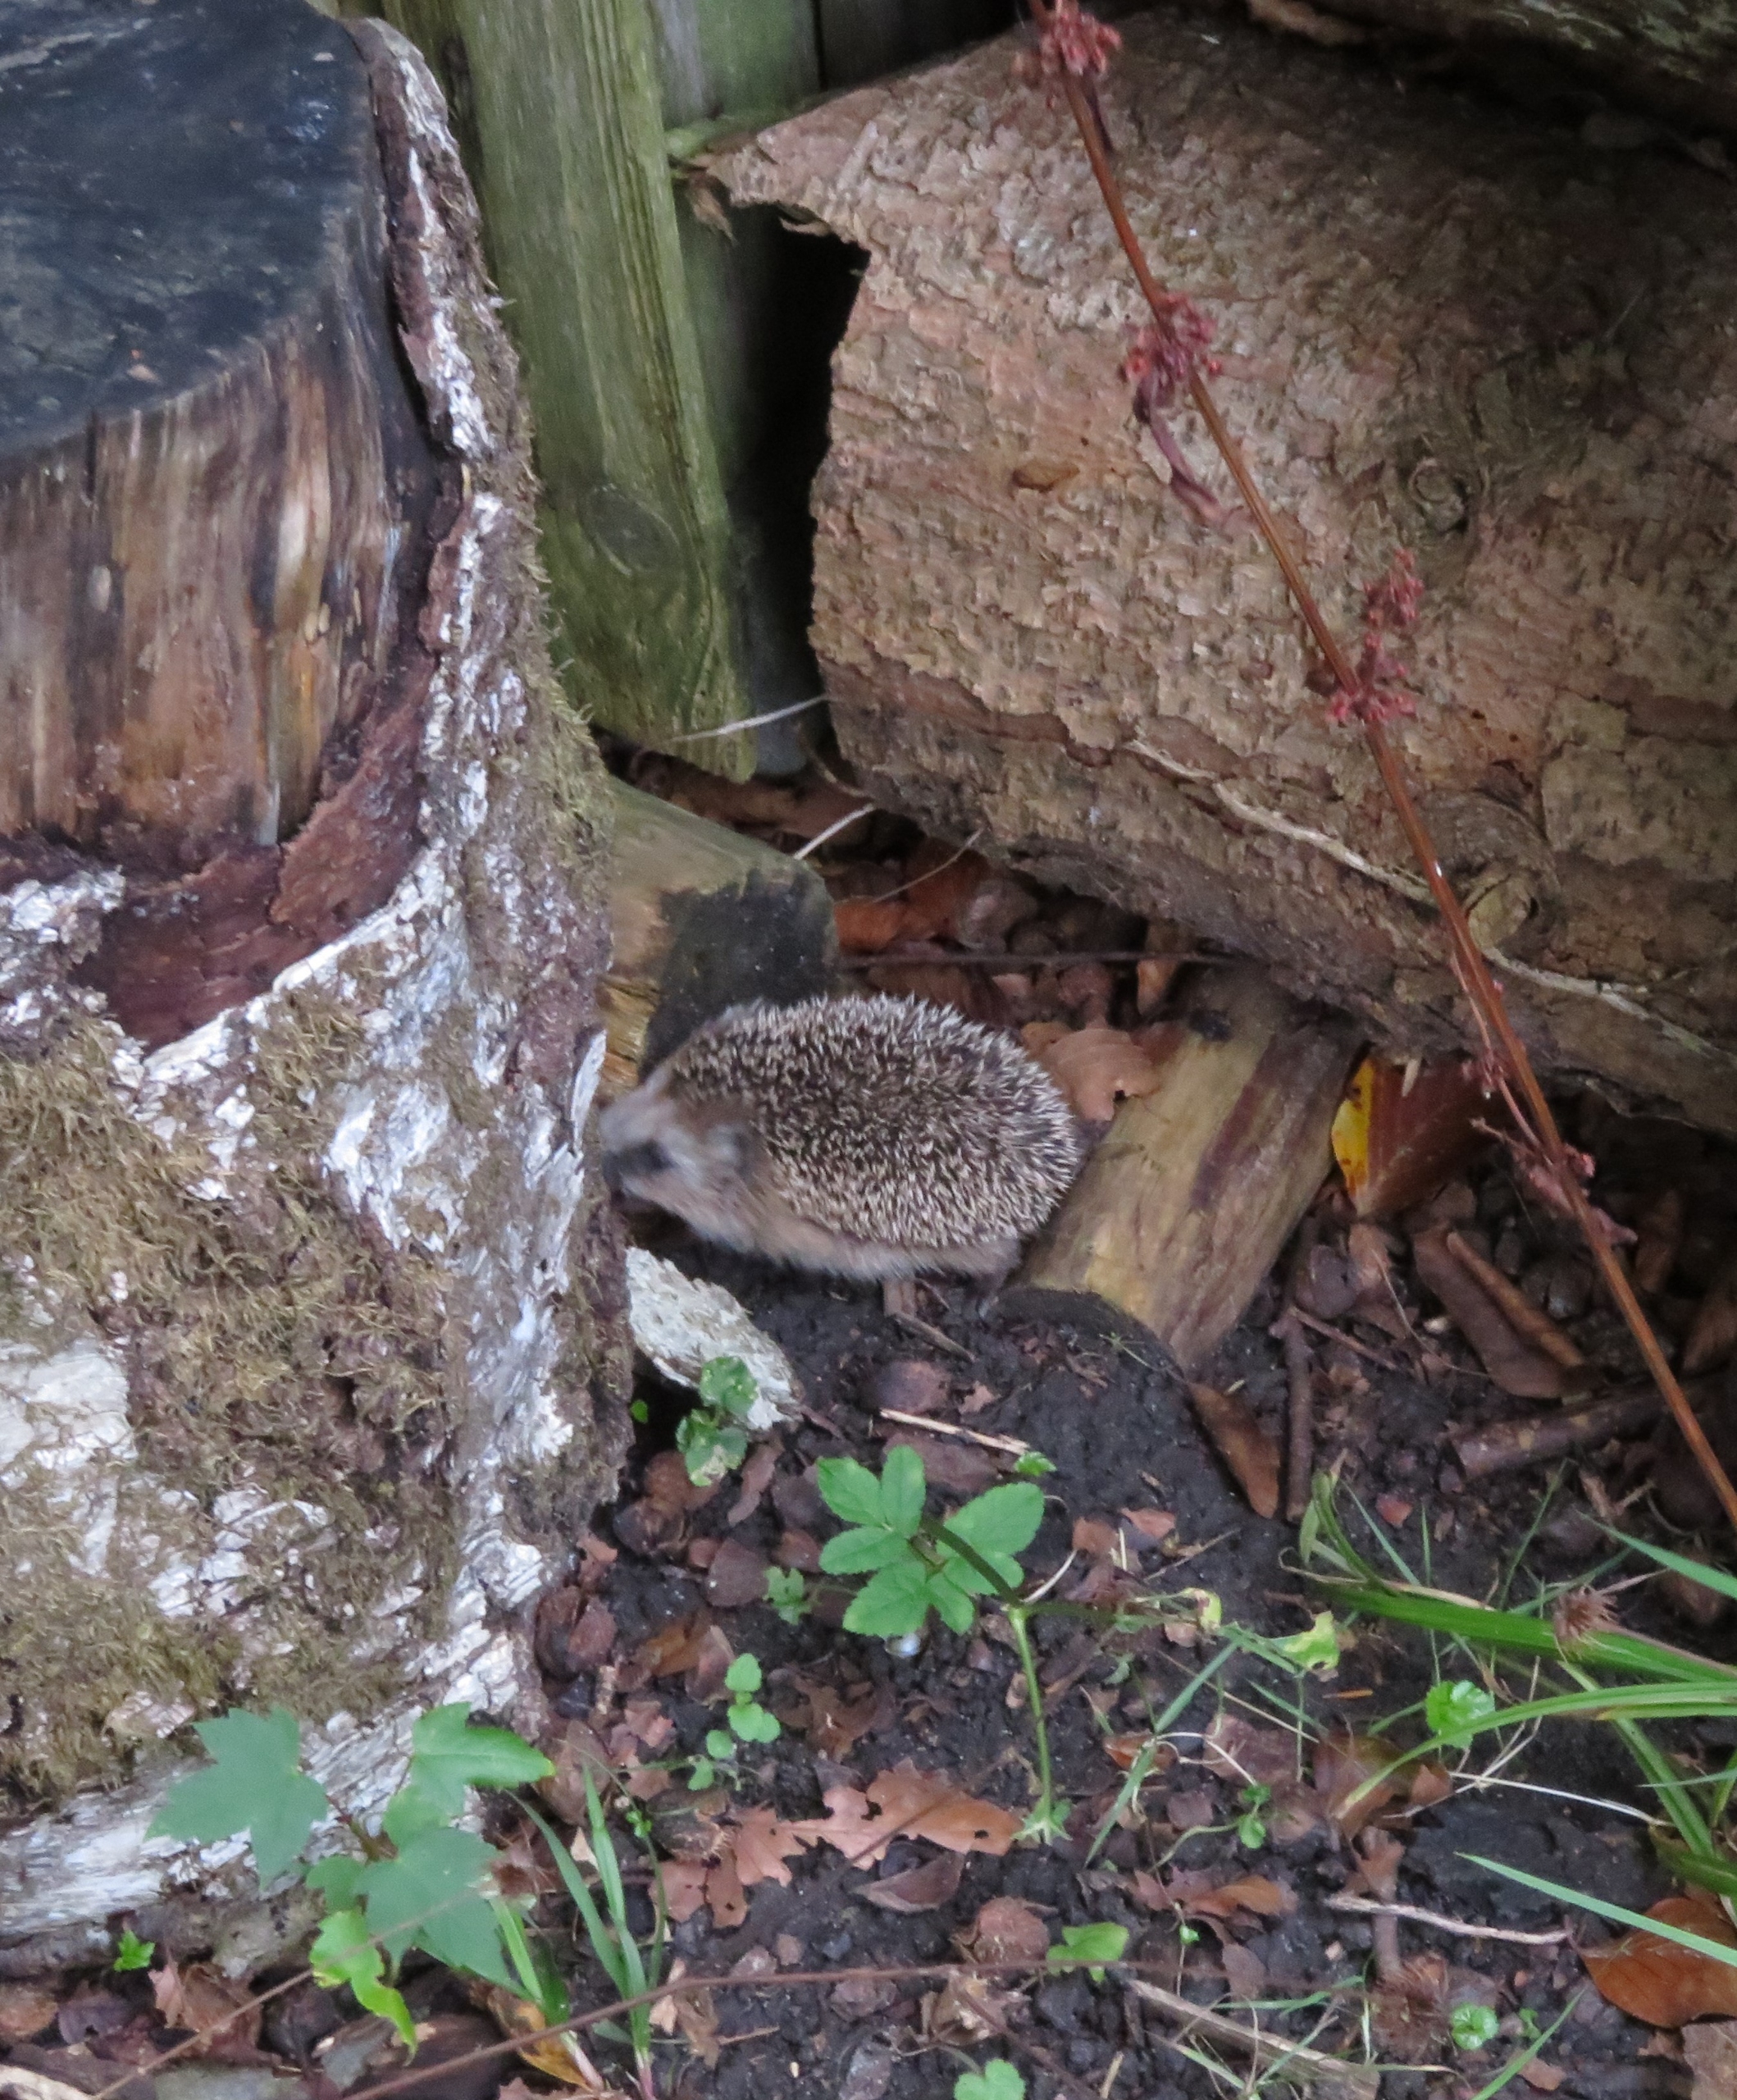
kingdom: Animalia
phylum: Chordata
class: Mammalia
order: Erinaceomorpha
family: Erinaceidae
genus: Erinaceus
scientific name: Erinaceus europaeus
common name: Pindsvin
